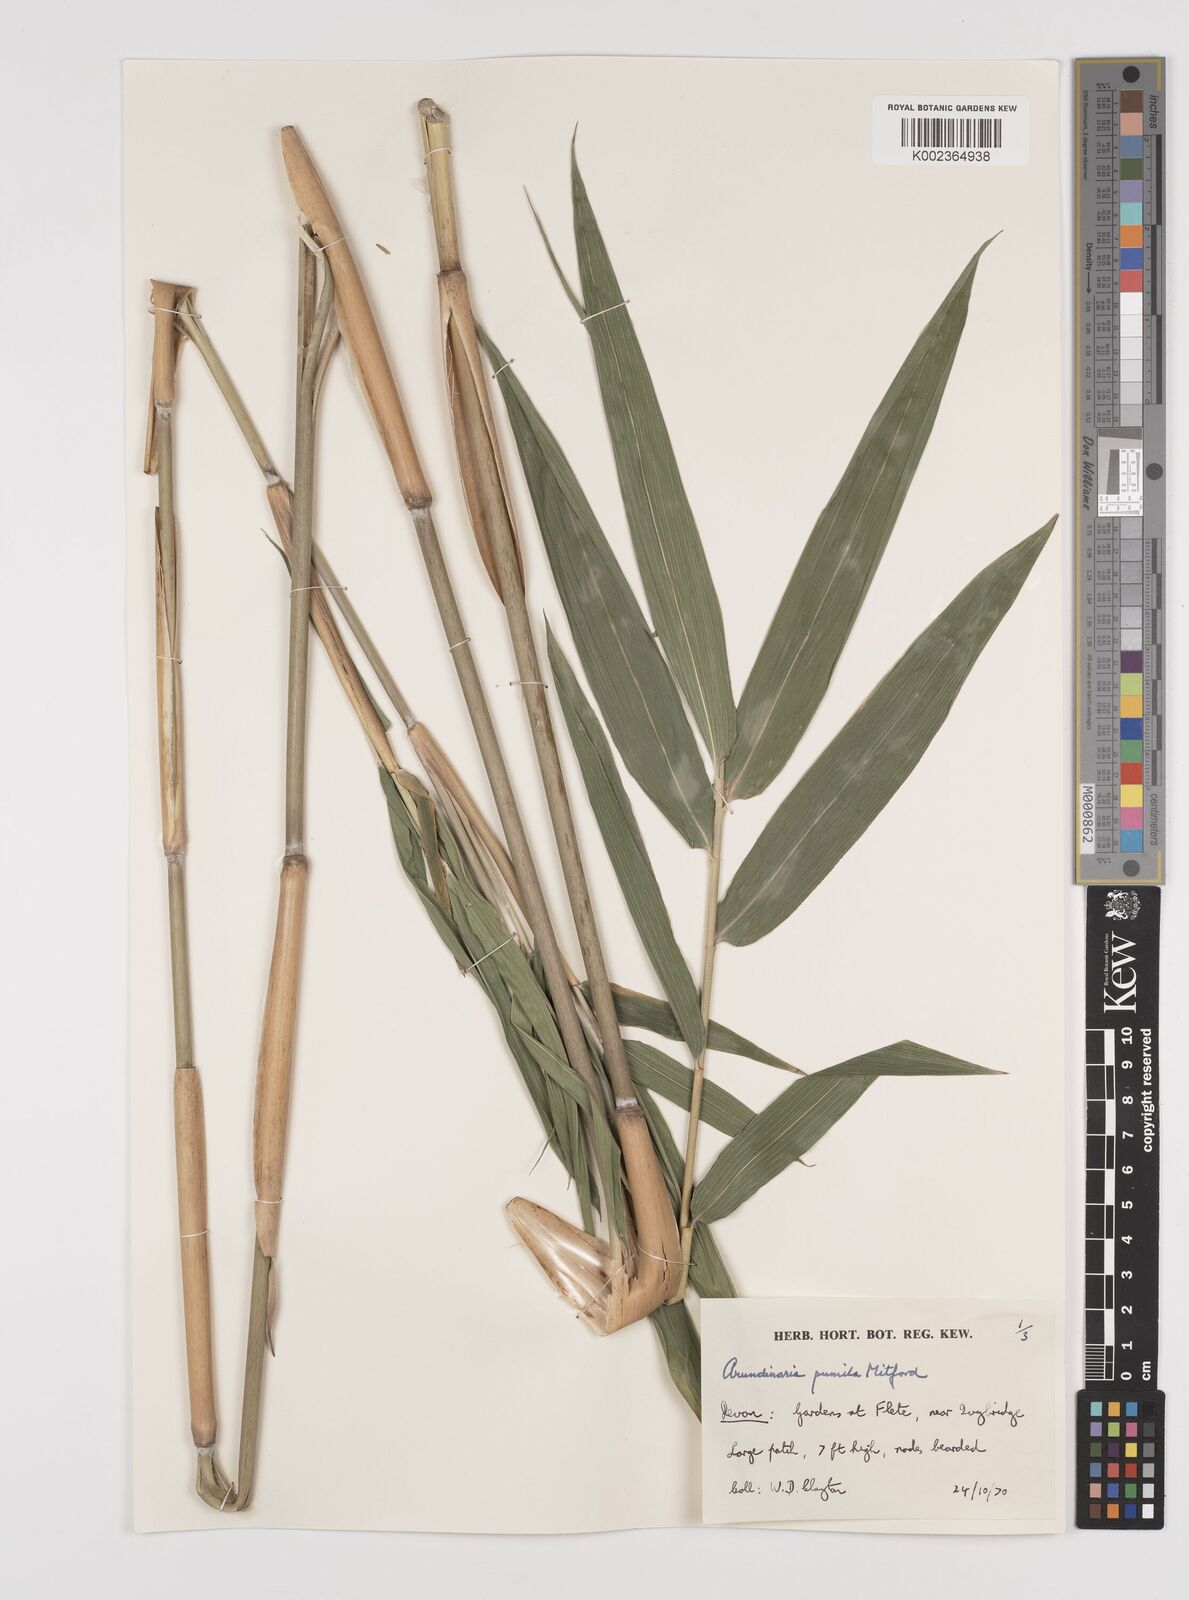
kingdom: Plantae
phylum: Tracheophyta
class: Liliopsida
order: Poales
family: Poaceae
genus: Pleioblastus
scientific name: Pleioblastus argenteostriatus
